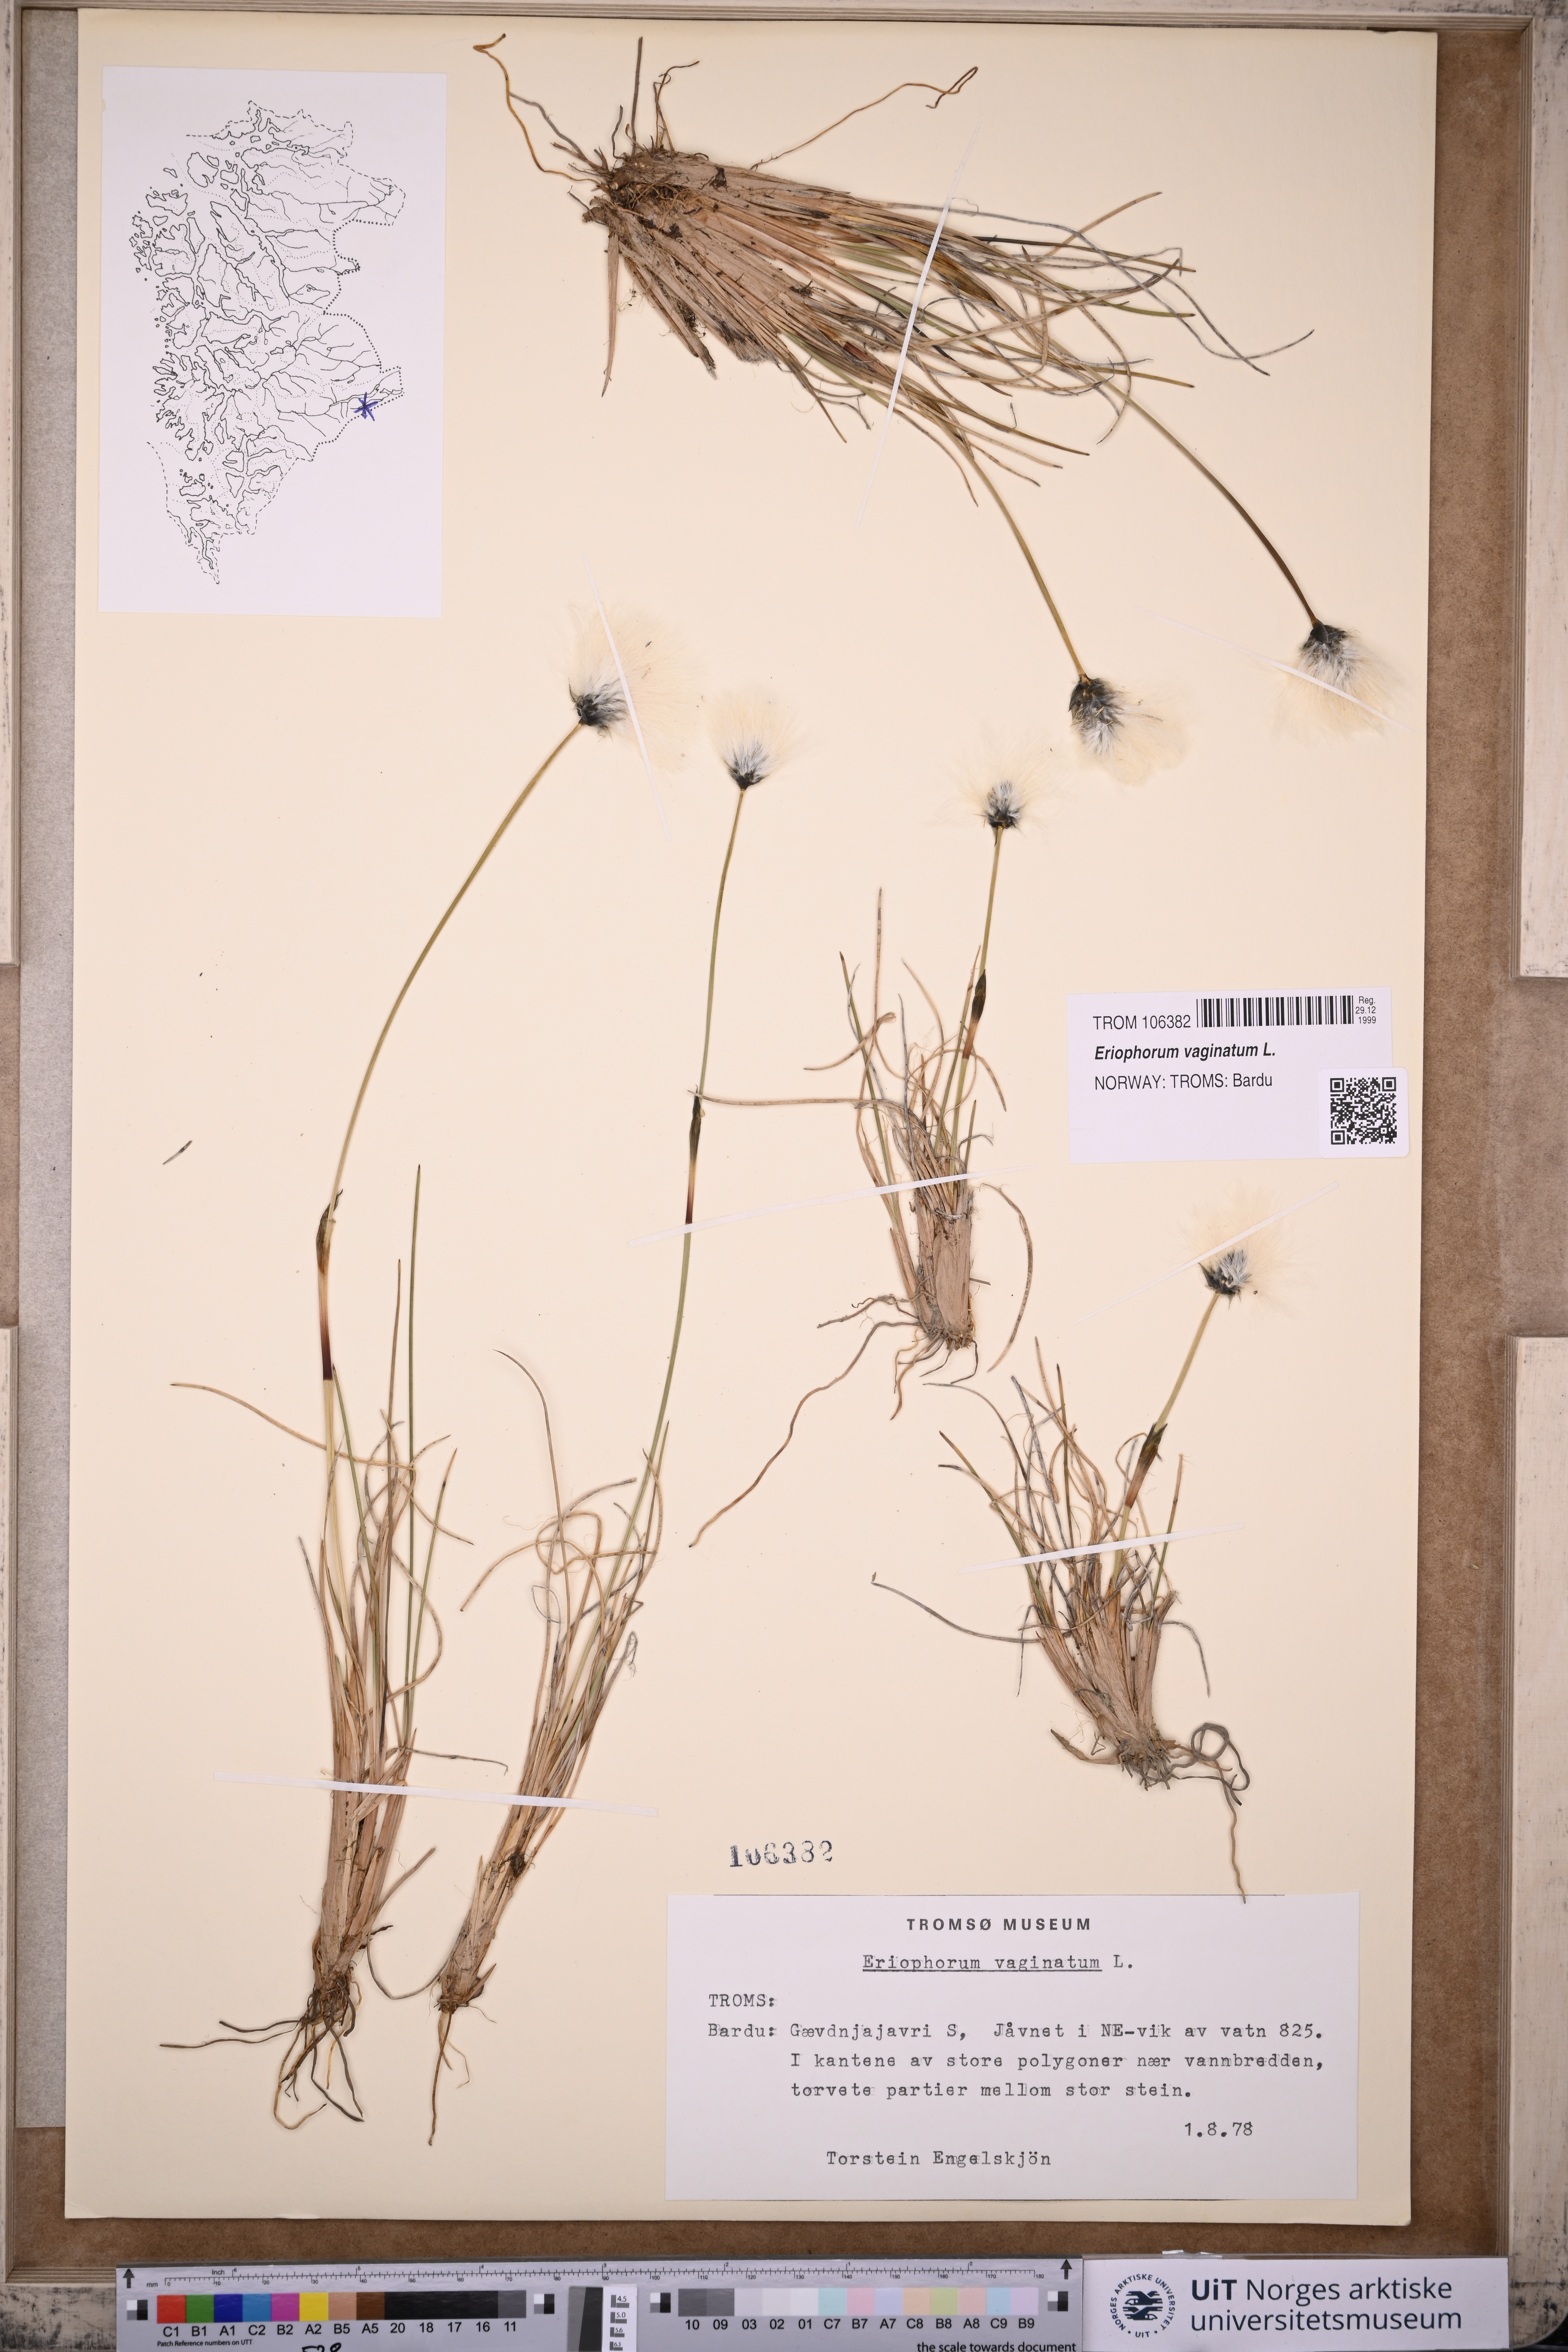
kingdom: Plantae
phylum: Tracheophyta
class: Liliopsida
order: Poales
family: Cyperaceae
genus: Eriophorum
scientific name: Eriophorum vaginatum
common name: Hare's-tail cottongrass
